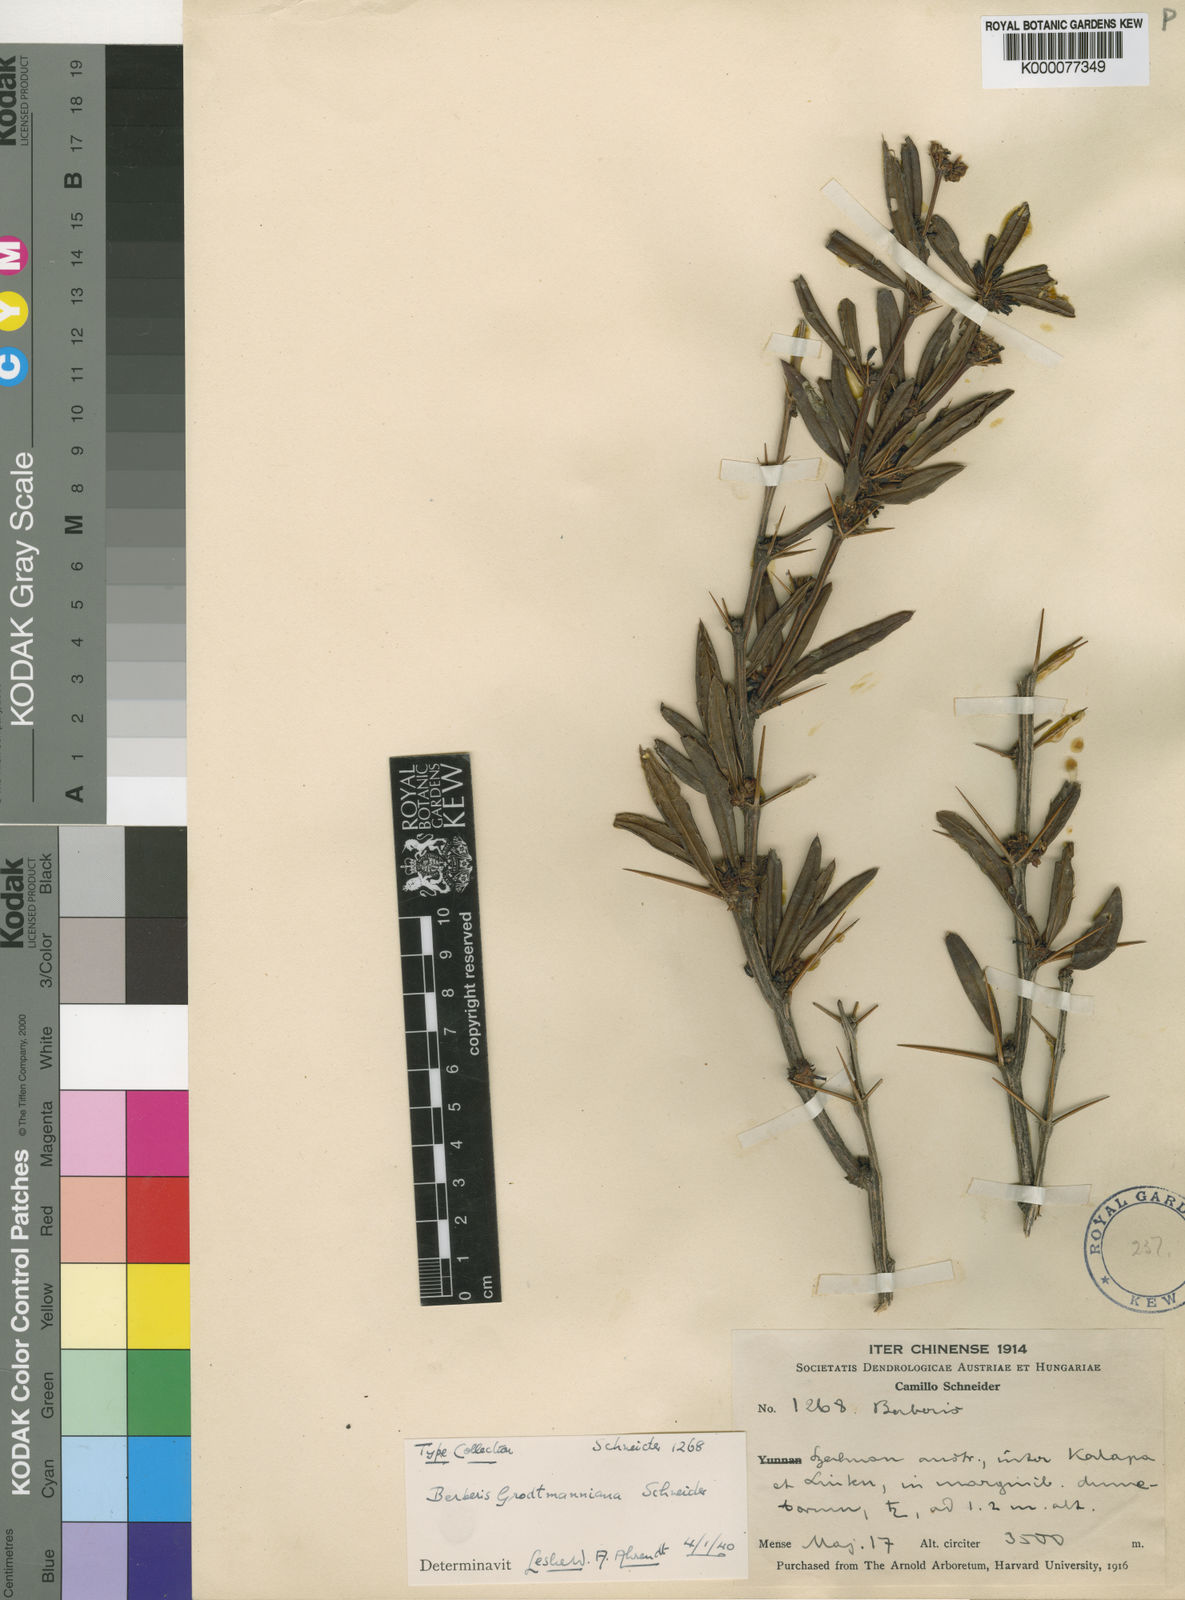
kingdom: Plantae
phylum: Tracheophyta
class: Magnoliopsida
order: Ranunculales
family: Berberidaceae
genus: Berberis
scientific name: Berberis grodtmanniana
